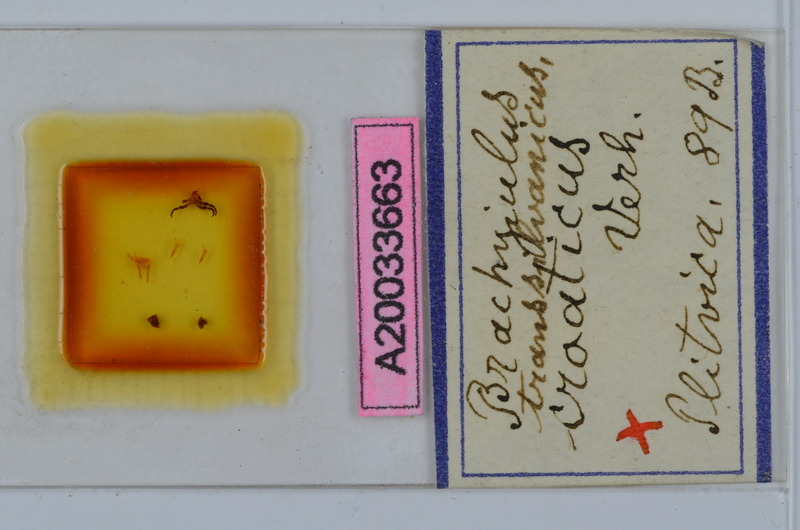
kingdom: Animalia
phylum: Arthropoda
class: Diplopoda
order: Julida
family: Julidae
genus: Megaphyllum
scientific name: Megaphyllum transsylvanicum
